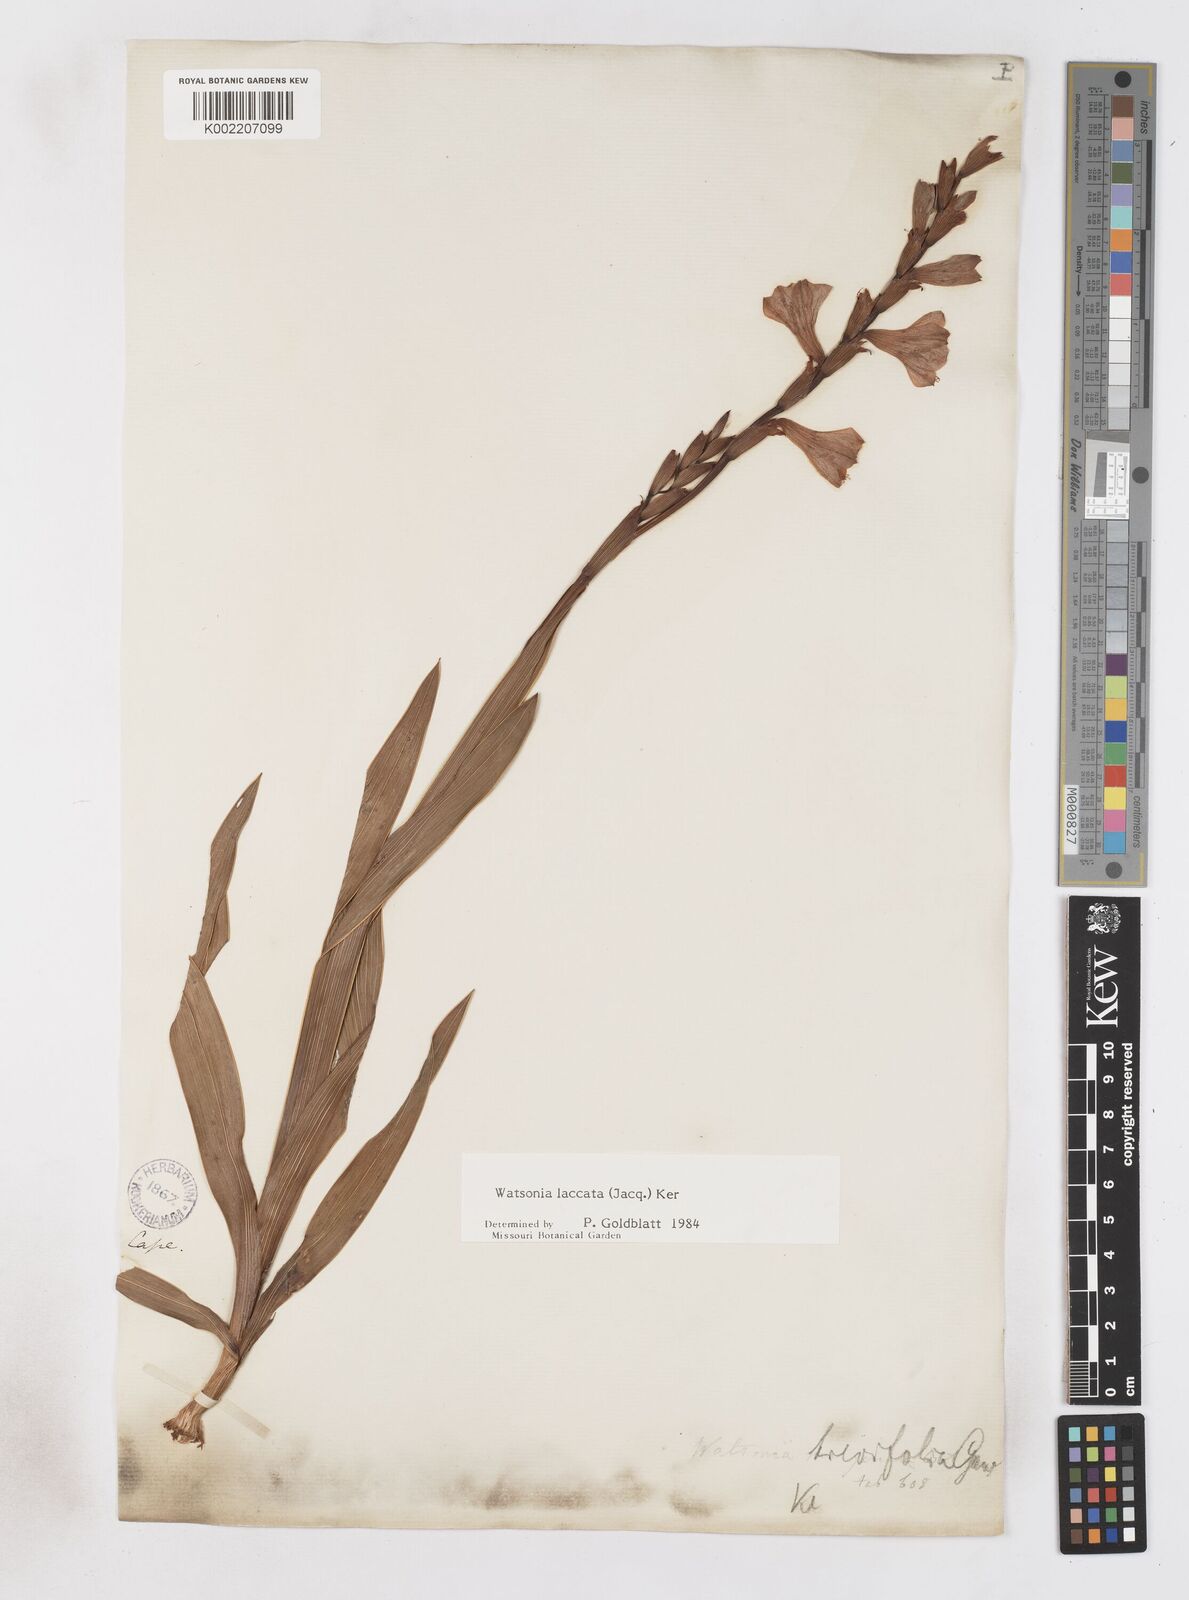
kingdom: Plantae
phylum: Tracheophyta
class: Liliopsida
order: Asparagales
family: Iridaceae
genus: Watsonia
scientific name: Watsonia laccata
